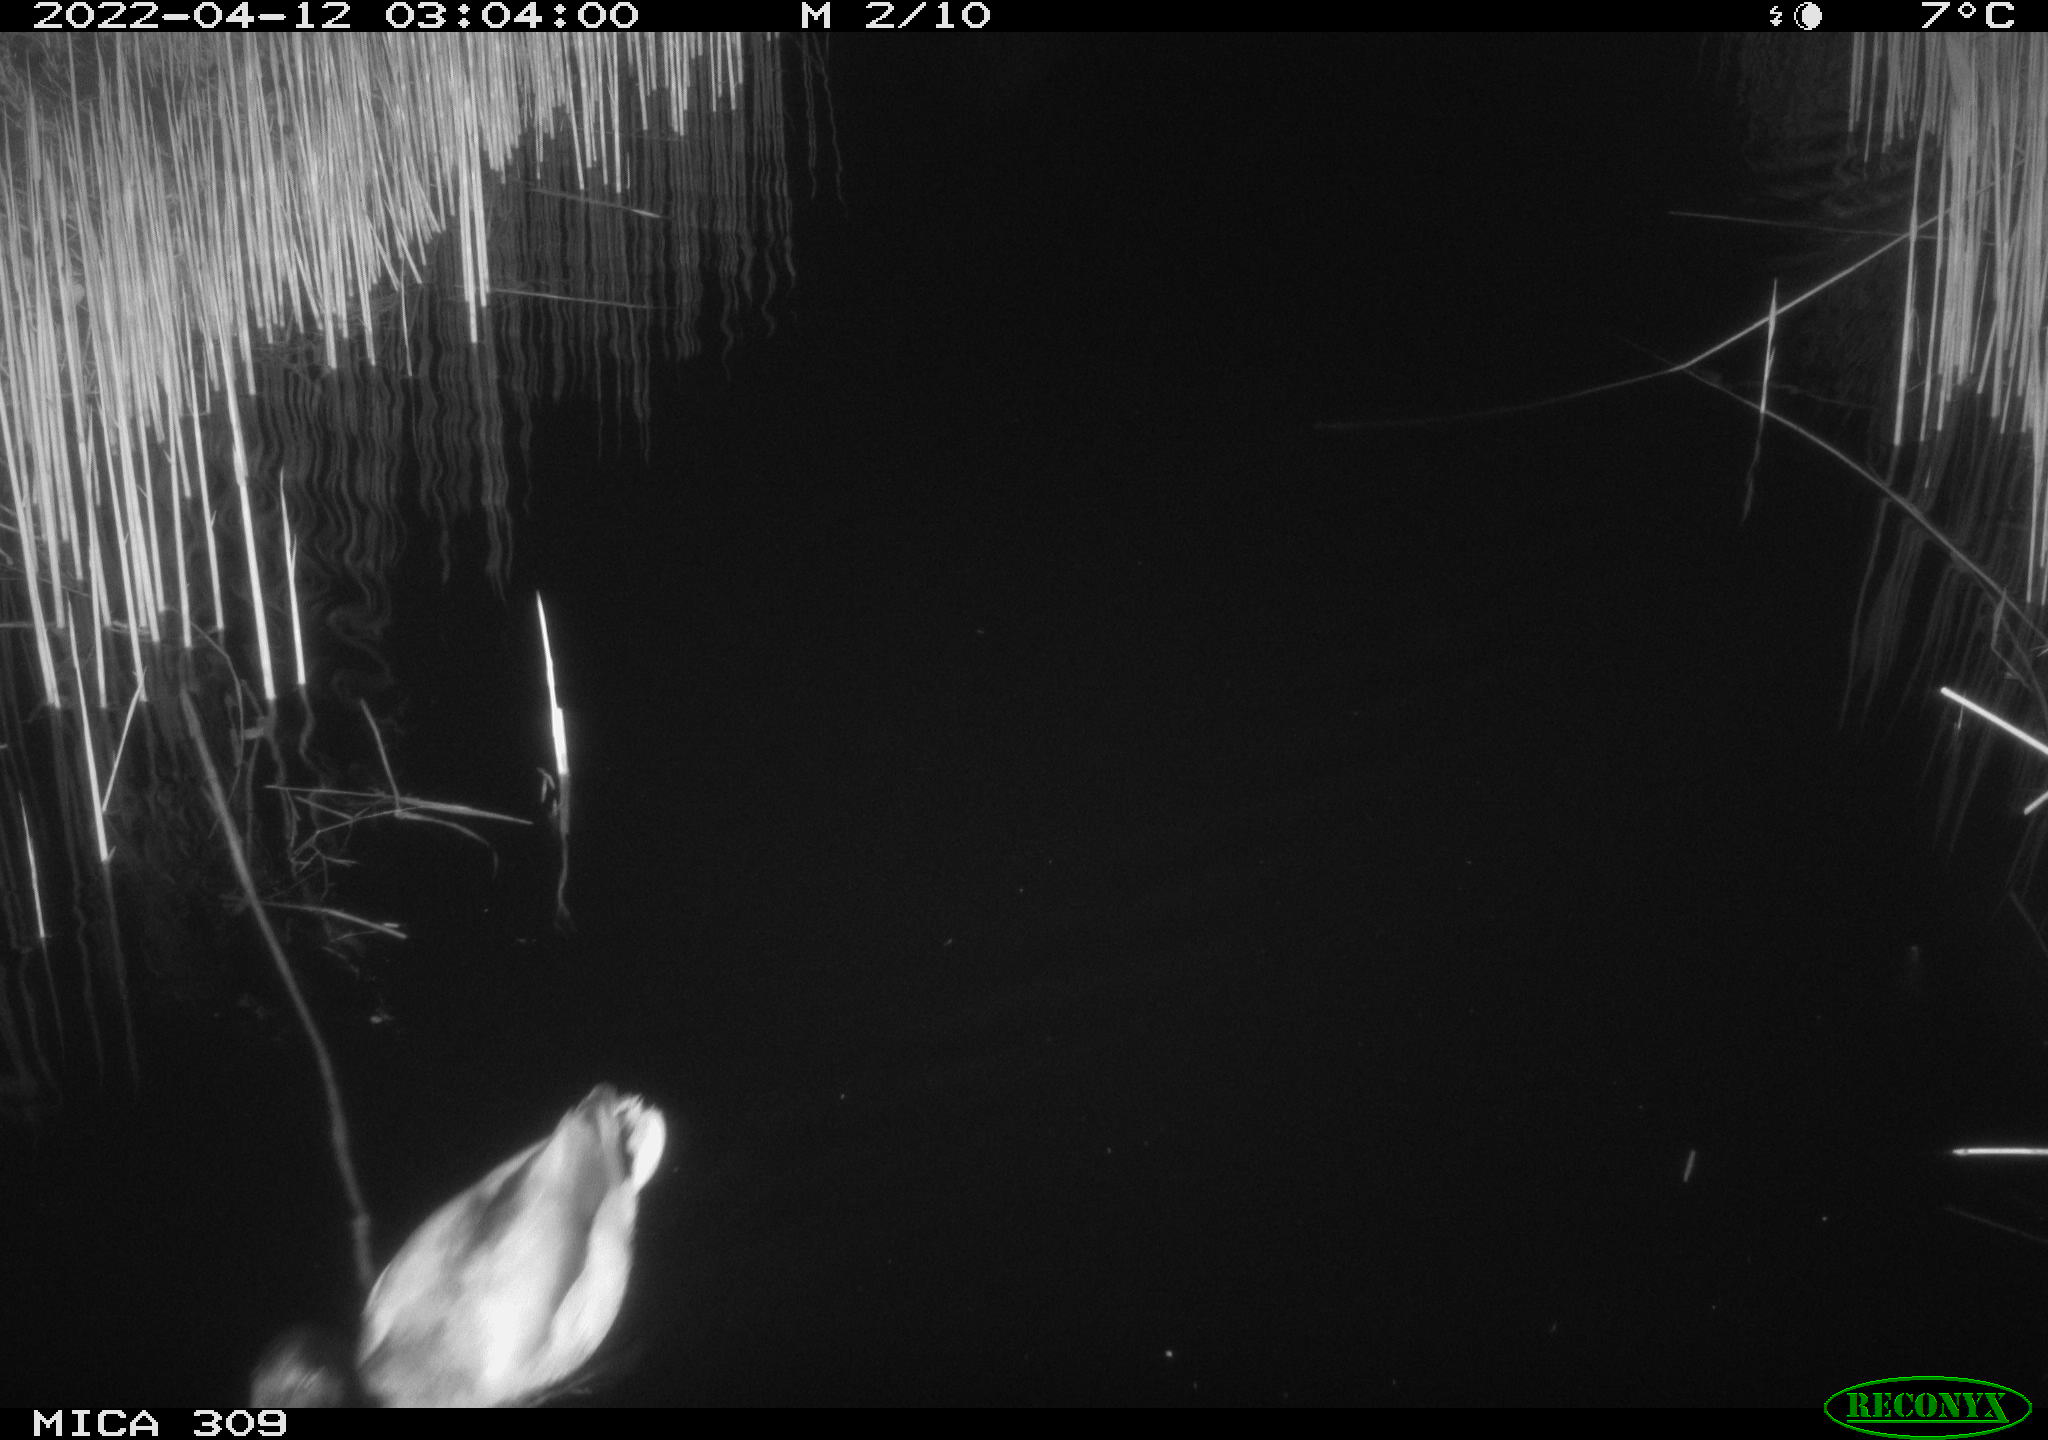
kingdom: Animalia
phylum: Chordata
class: Aves
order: Gruiformes
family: Rallidae
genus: Gallinula
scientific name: Gallinula chloropus
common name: Common moorhen
